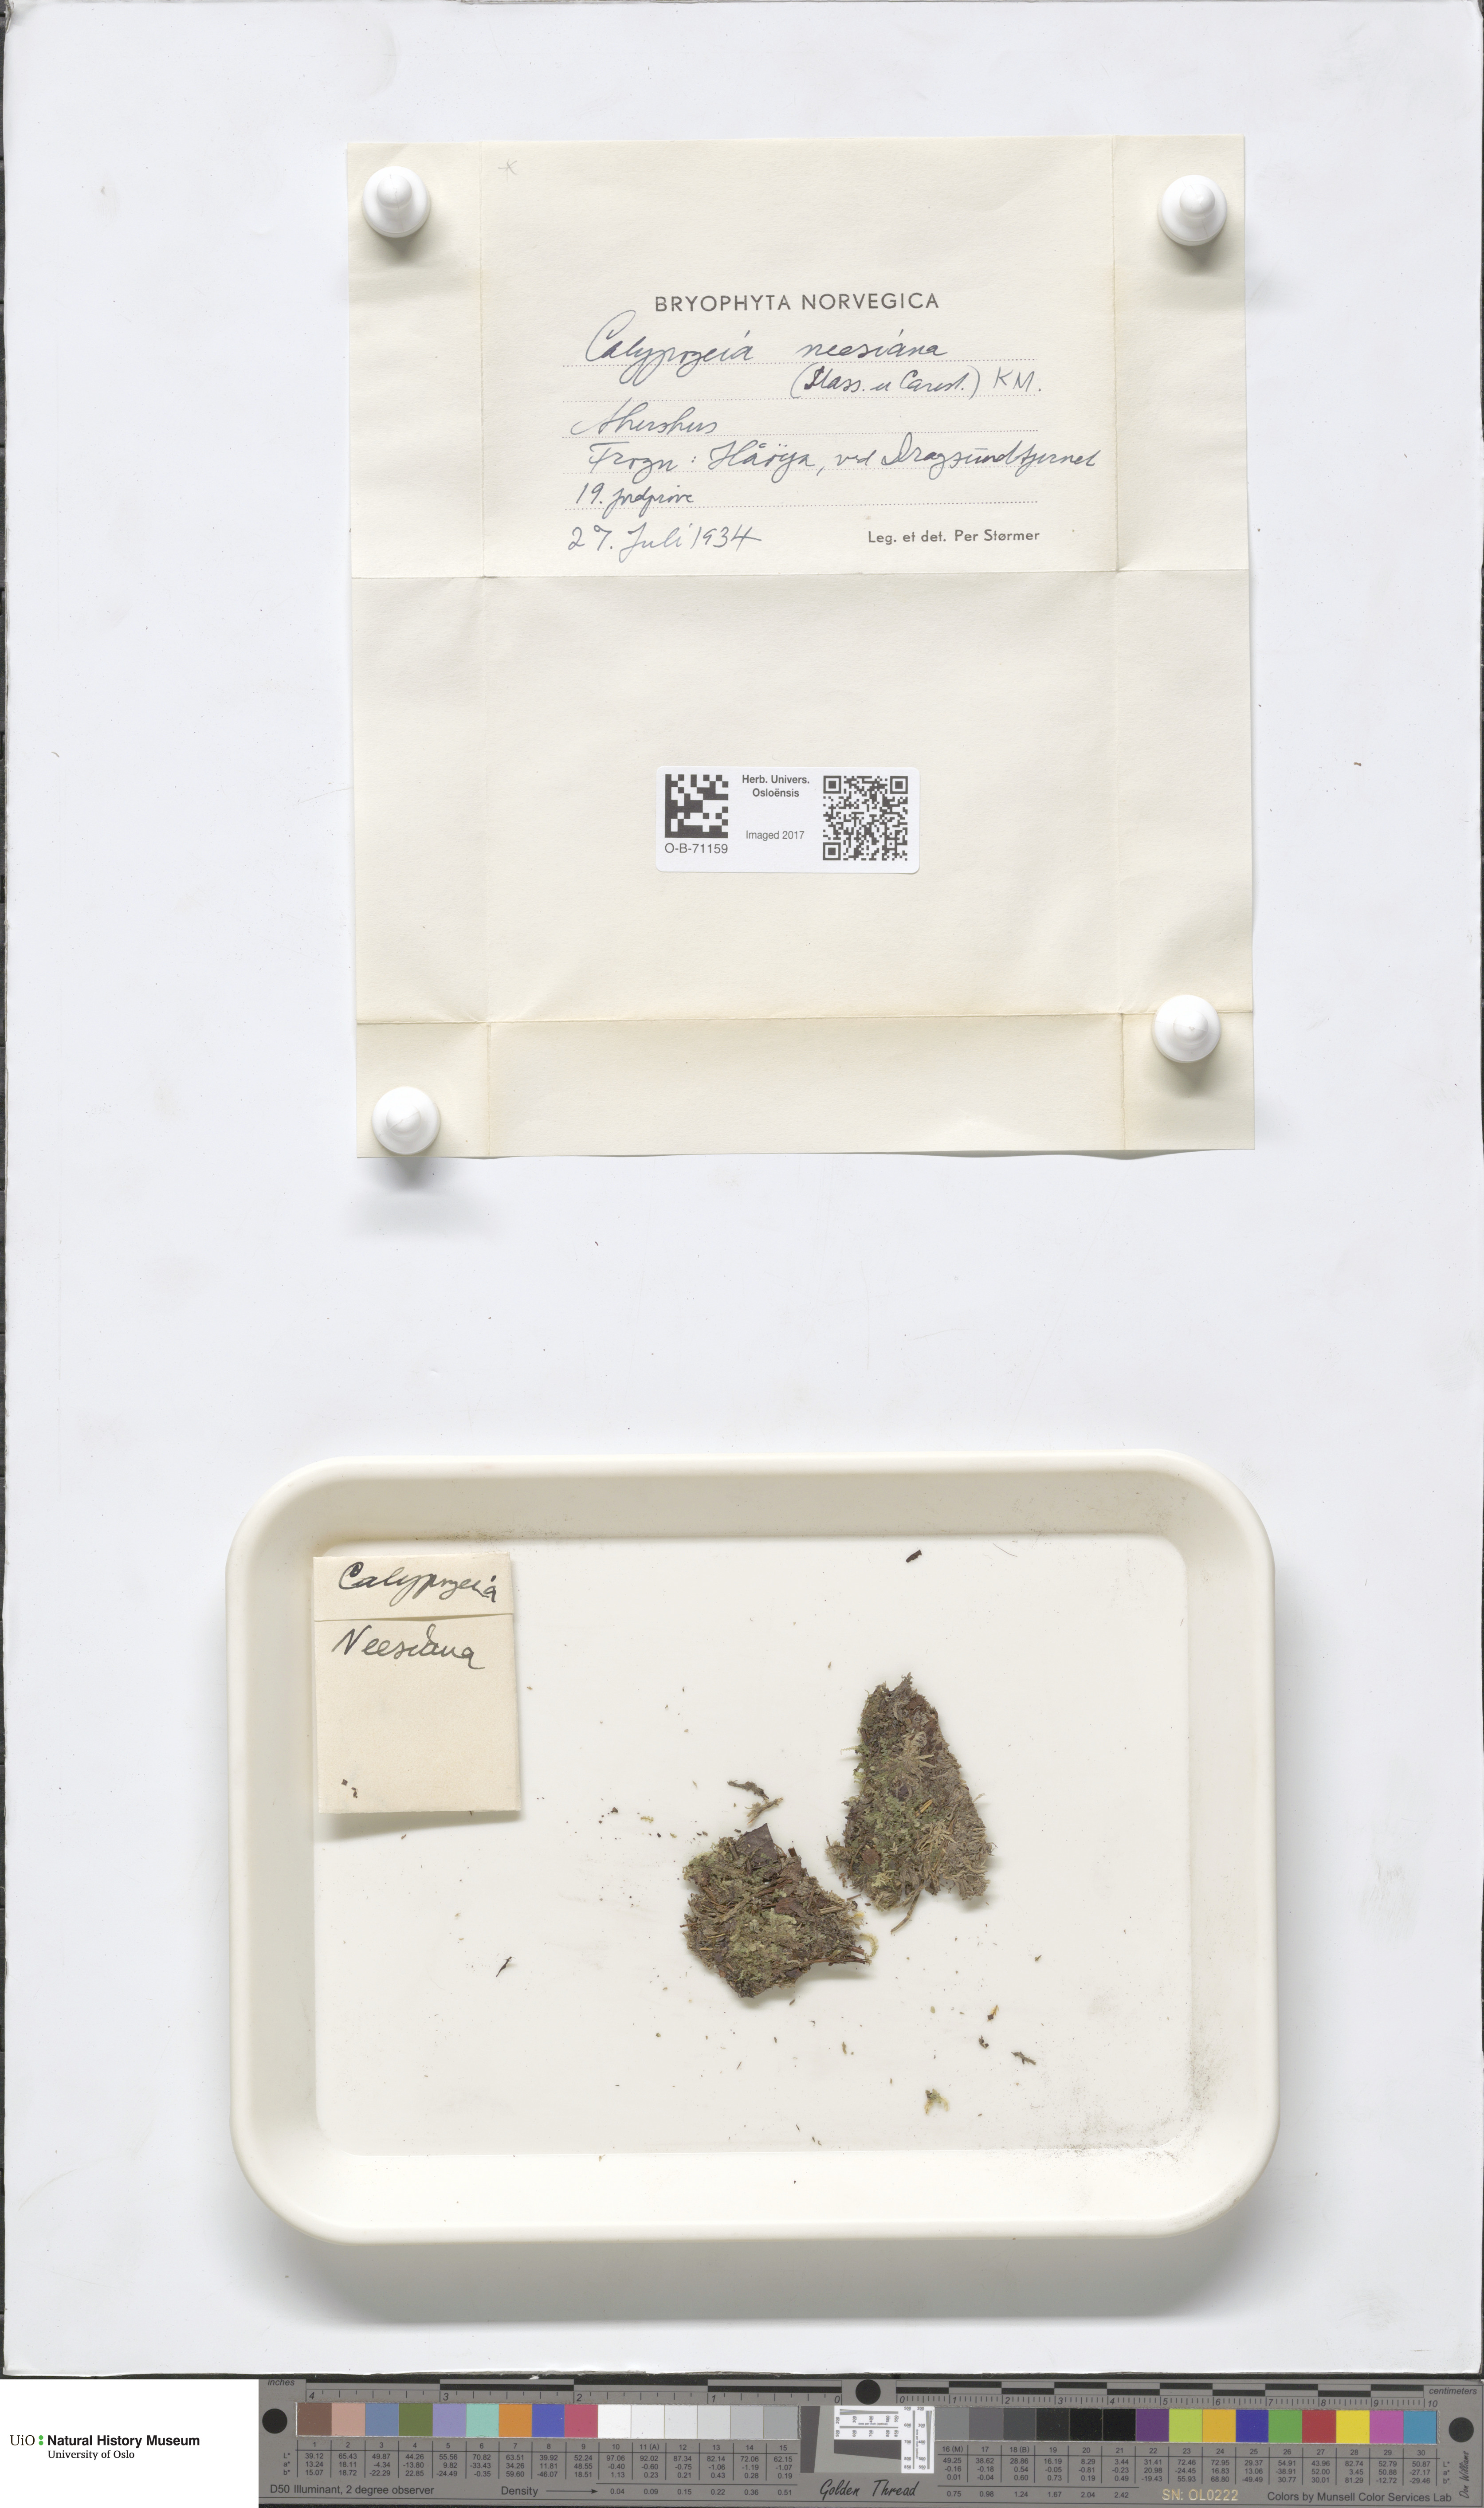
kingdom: Plantae
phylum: Marchantiophyta
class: Jungermanniopsida
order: Jungermanniales
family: Calypogeiaceae
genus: Calypogeia
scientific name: Calypogeia neesiana
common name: Nees  pouchwort
